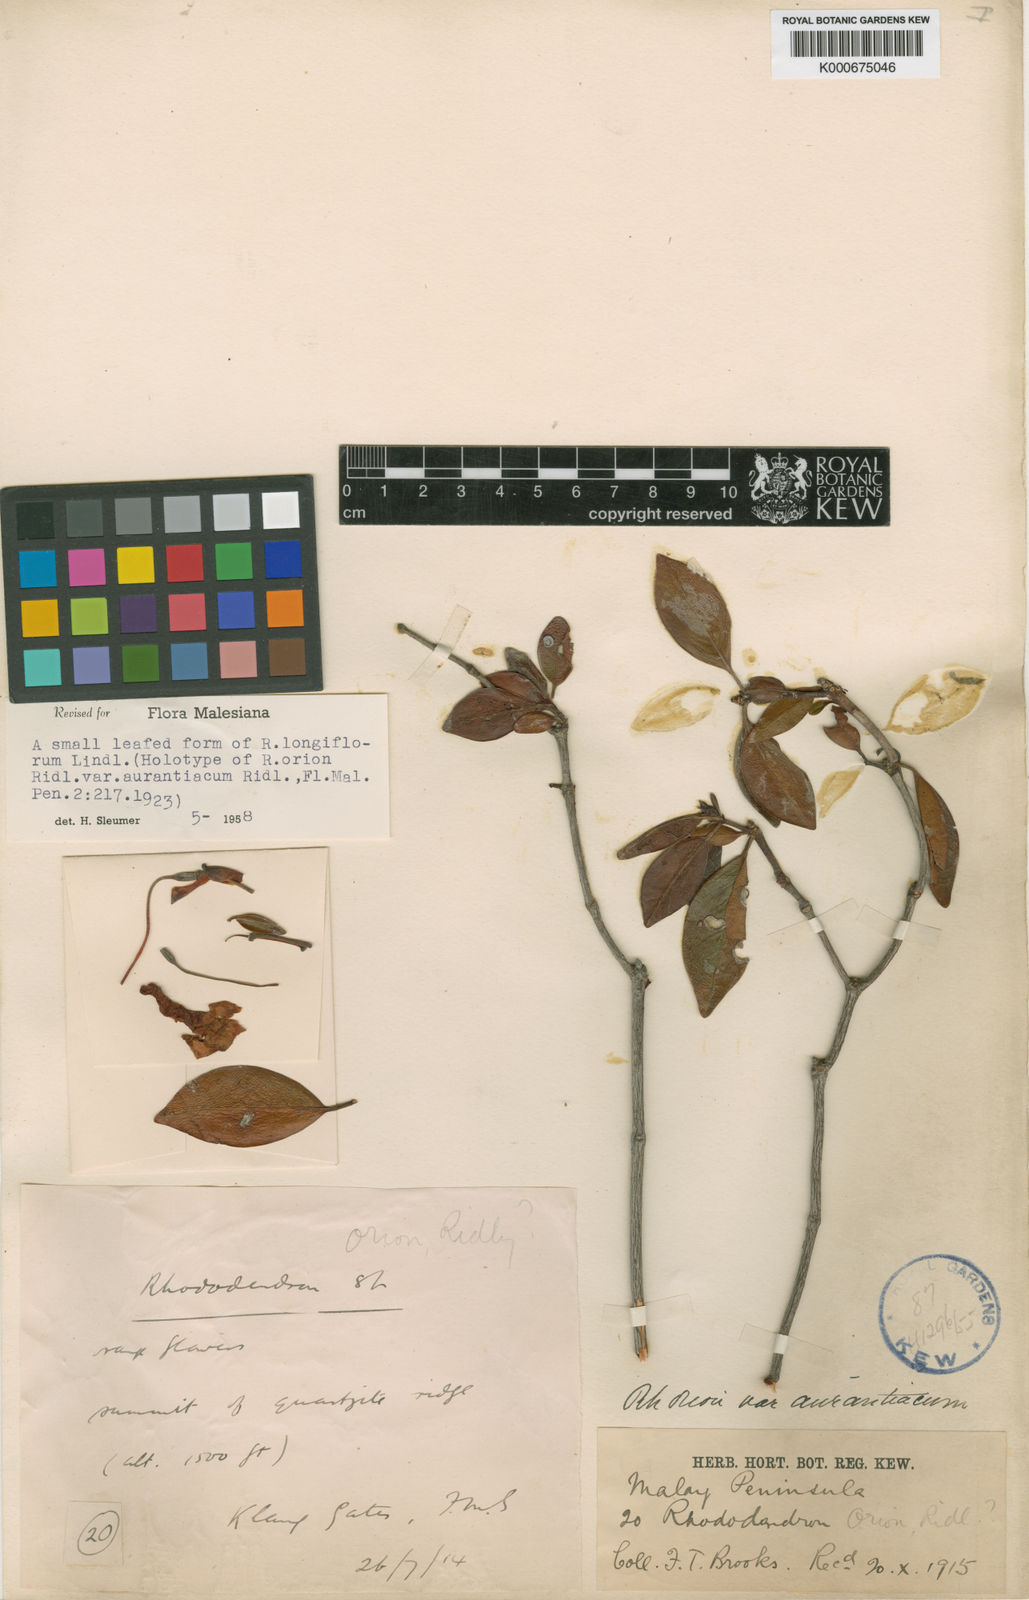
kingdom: Plantae
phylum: Tracheophyta
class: Magnoliopsida
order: Ericales
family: Ericaceae
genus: Rhododendron
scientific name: Rhododendron longiflorum
